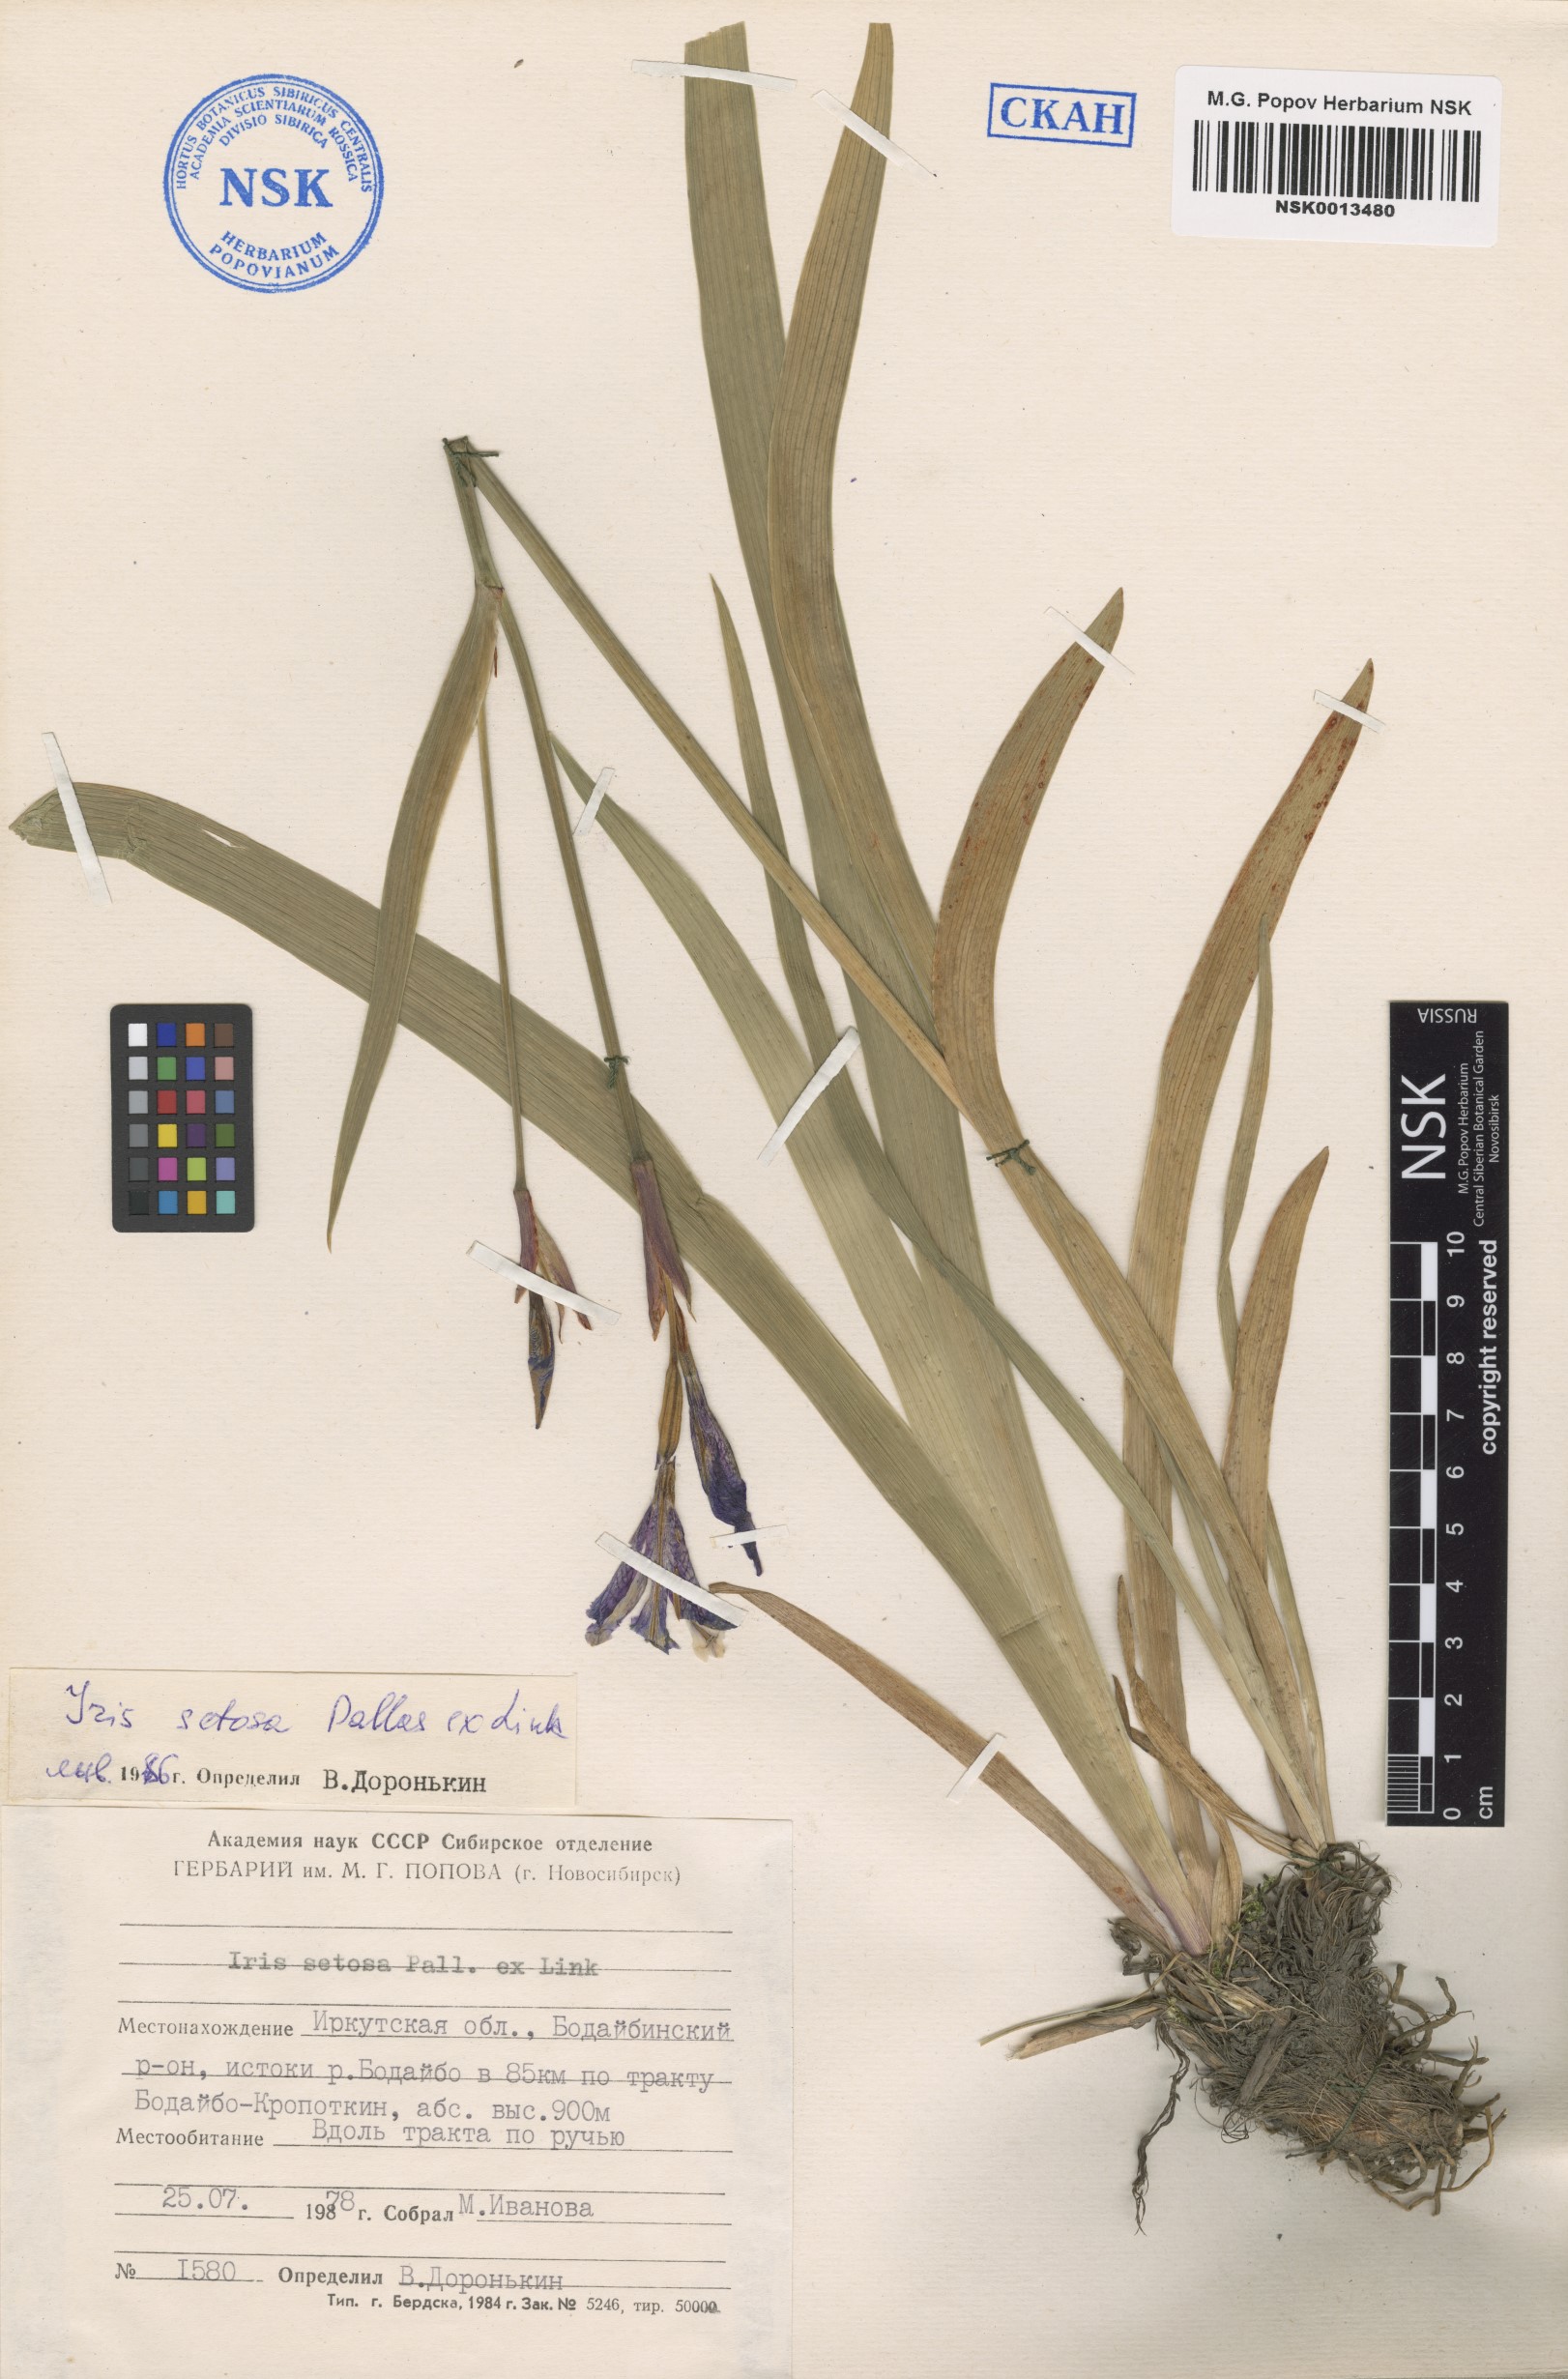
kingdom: Plantae
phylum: Tracheophyta
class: Liliopsida
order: Asparagales
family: Iridaceae
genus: Iris
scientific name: Iris setosa
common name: Arctic blue flag
